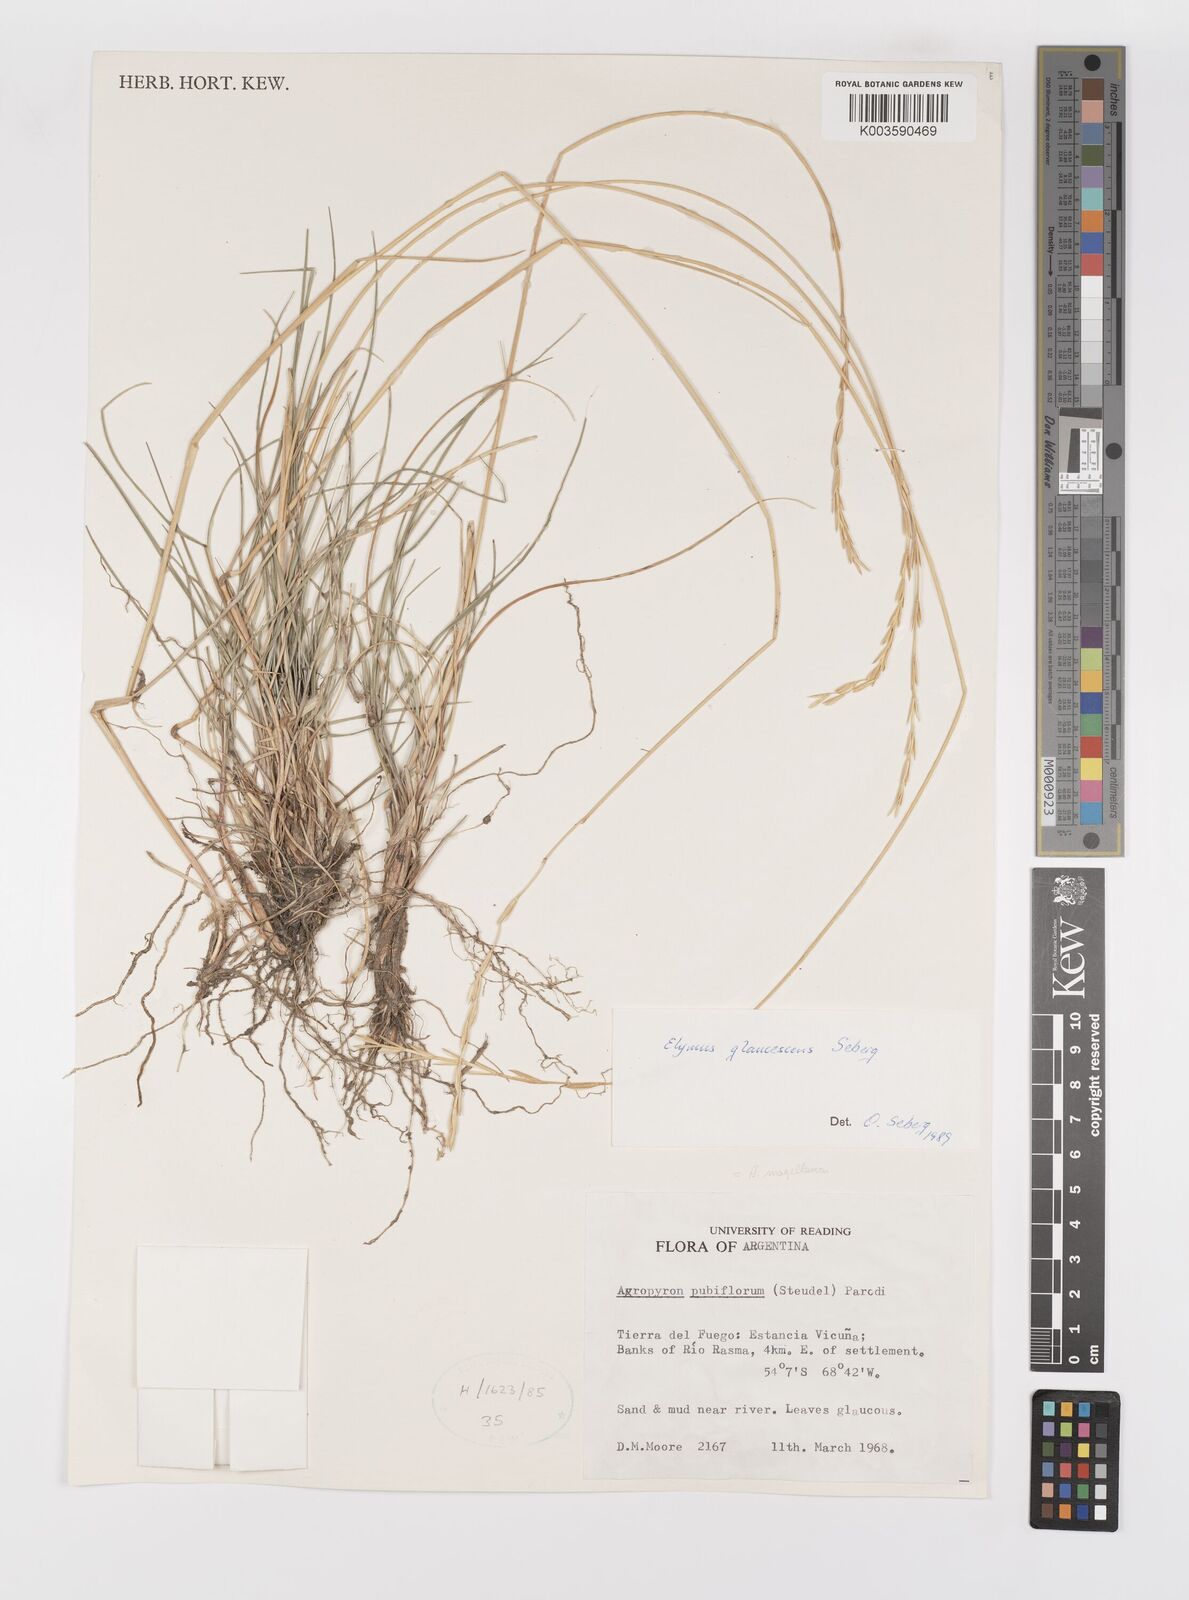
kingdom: Plantae
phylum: Tracheophyta
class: Liliopsida
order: Poales
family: Poaceae
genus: Elymus
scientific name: Elymus magellanicus
